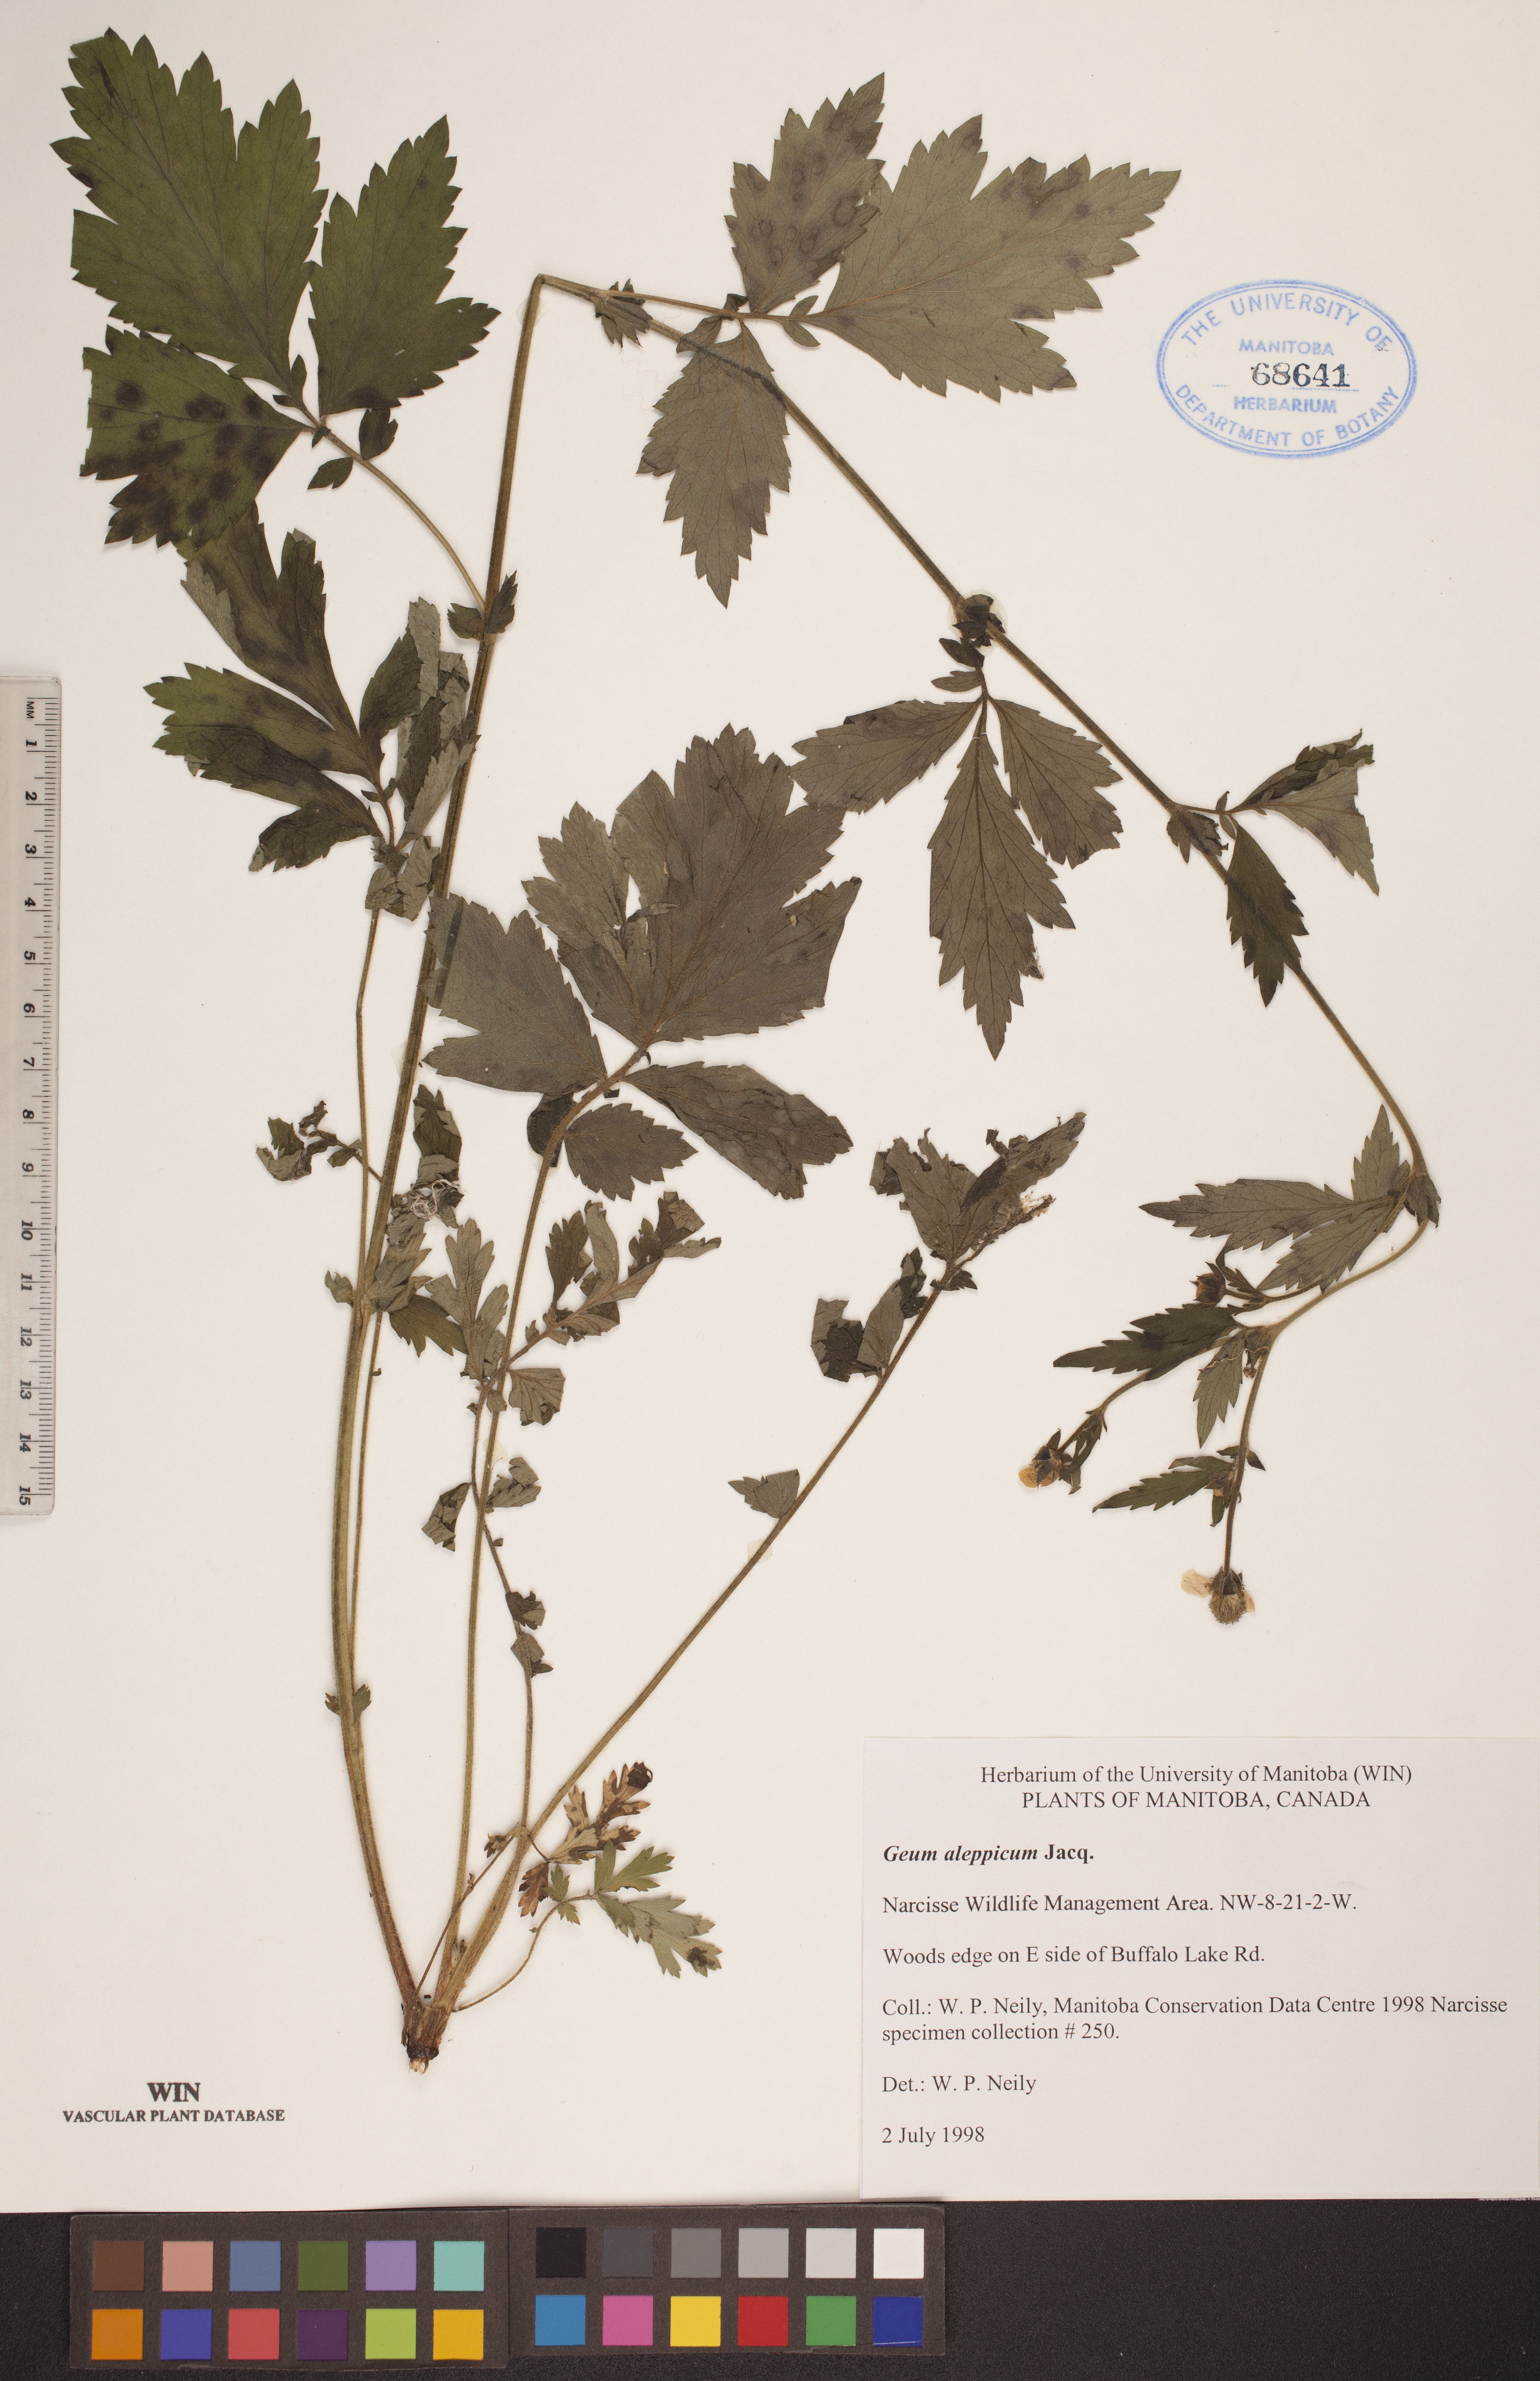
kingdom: Plantae
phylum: Tracheophyta
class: Magnoliopsida
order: Rosales
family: Rosaceae
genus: Geum
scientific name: Geum aleppicum
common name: Yellow avens
